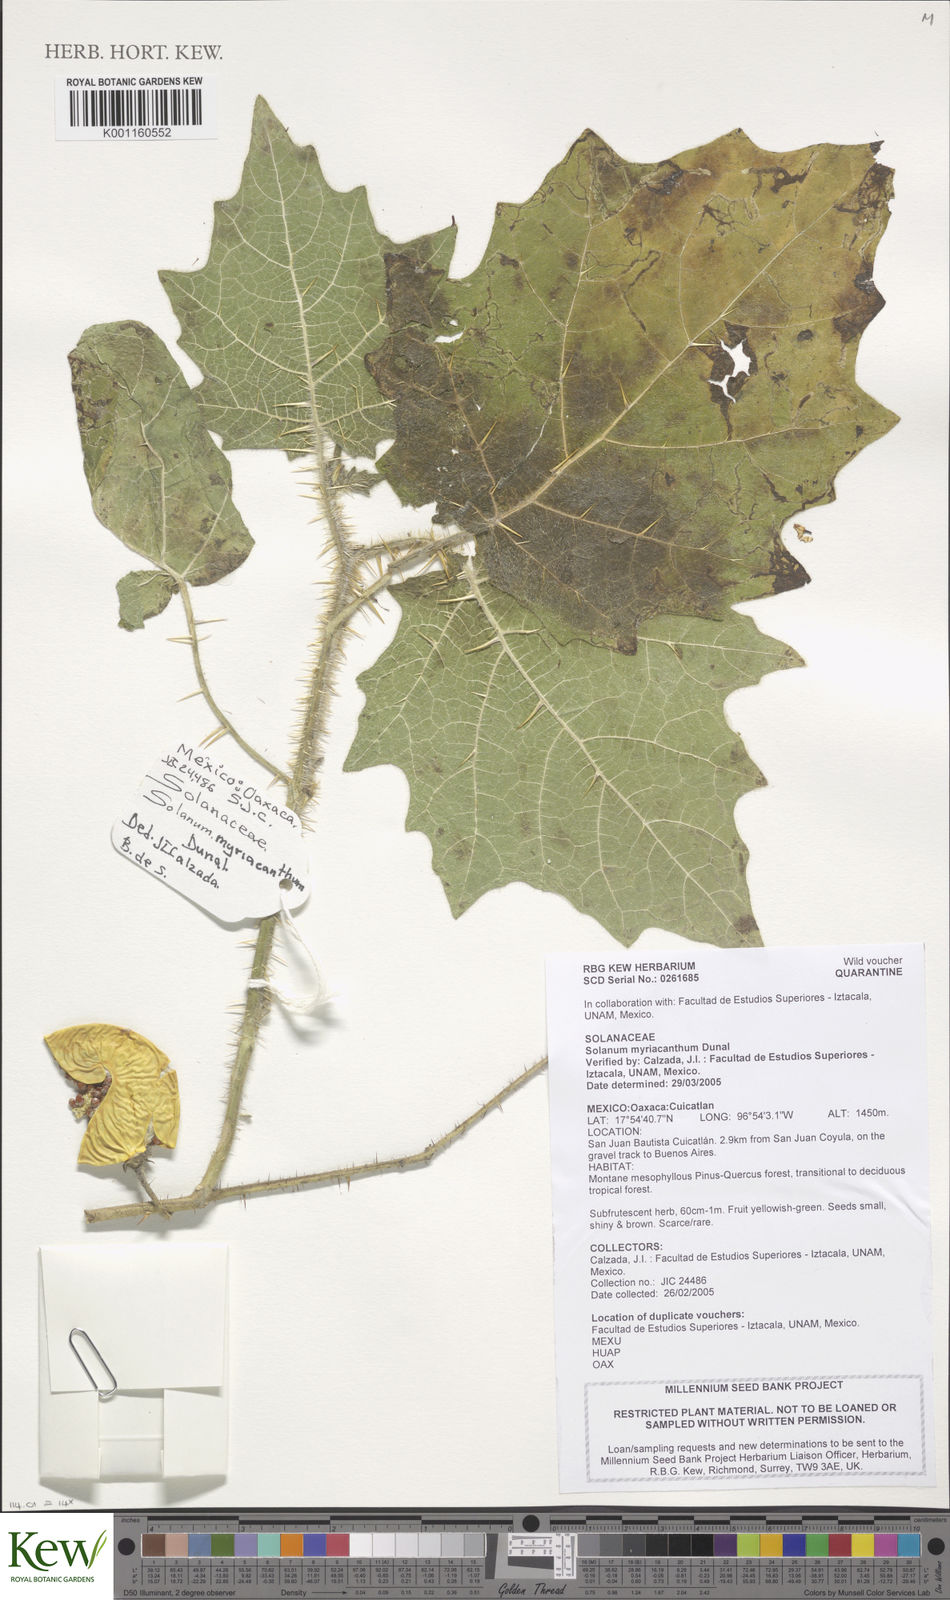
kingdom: Plantae
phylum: Tracheophyta
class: Magnoliopsida
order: Solanales
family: Solanaceae
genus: Solanum
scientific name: Solanum myriacanthum
